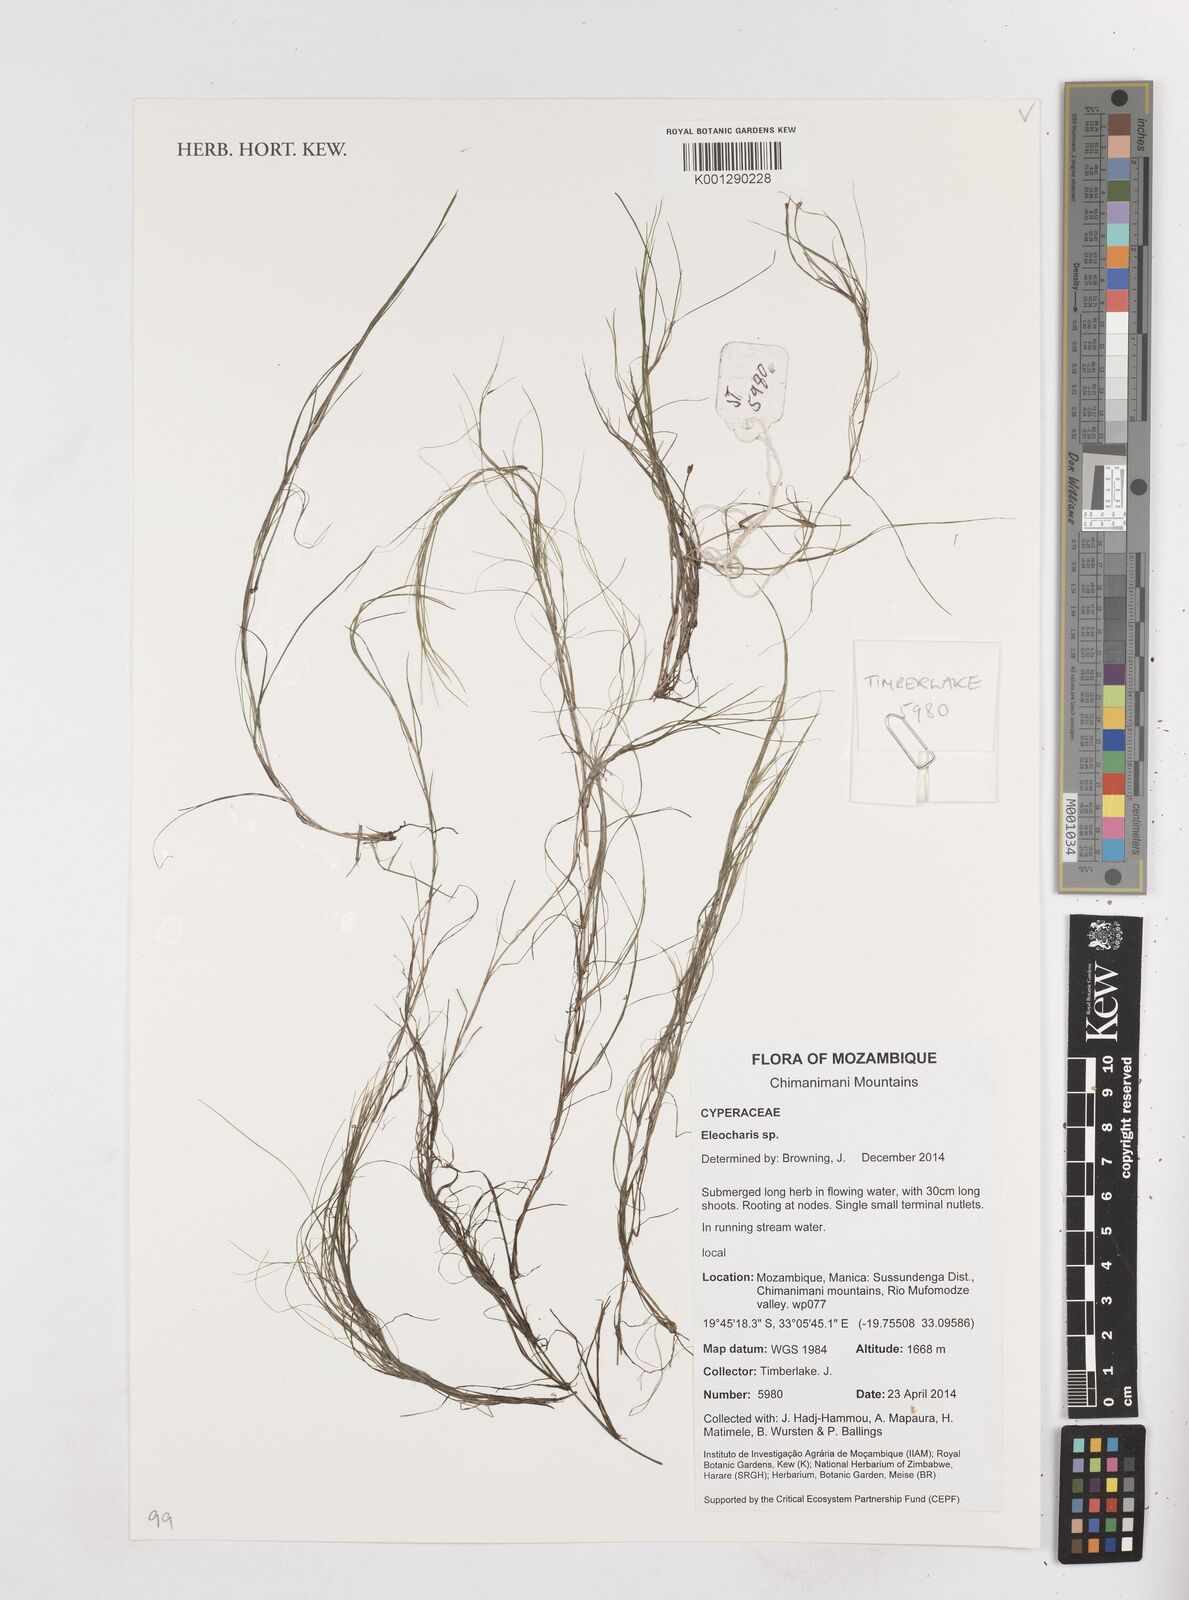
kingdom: Plantae
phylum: Tracheophyta
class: Liliopsida
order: Poales
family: Cyperaceae
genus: Eleocharis
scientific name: Eleocharis
